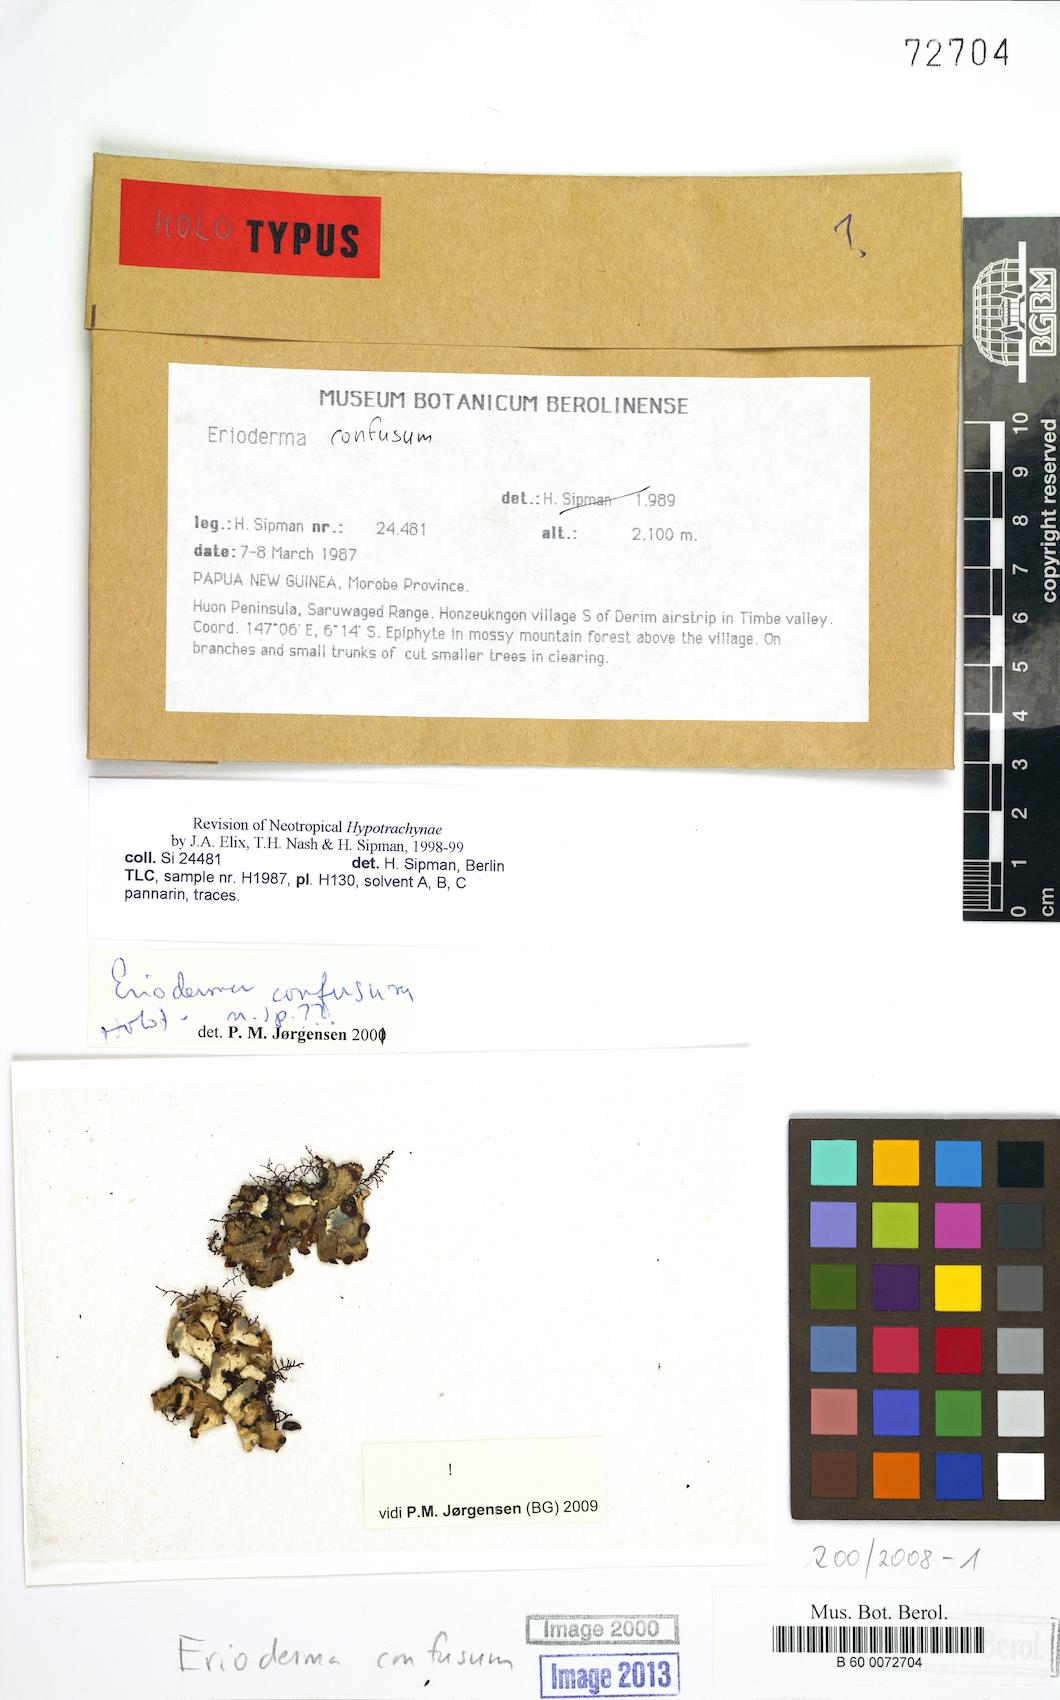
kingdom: Fungi
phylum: Ascomycota
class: Lecanoromycetes
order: Peltigerales
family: Pannariaceae
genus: Erioderma
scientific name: Erioderma confusum
